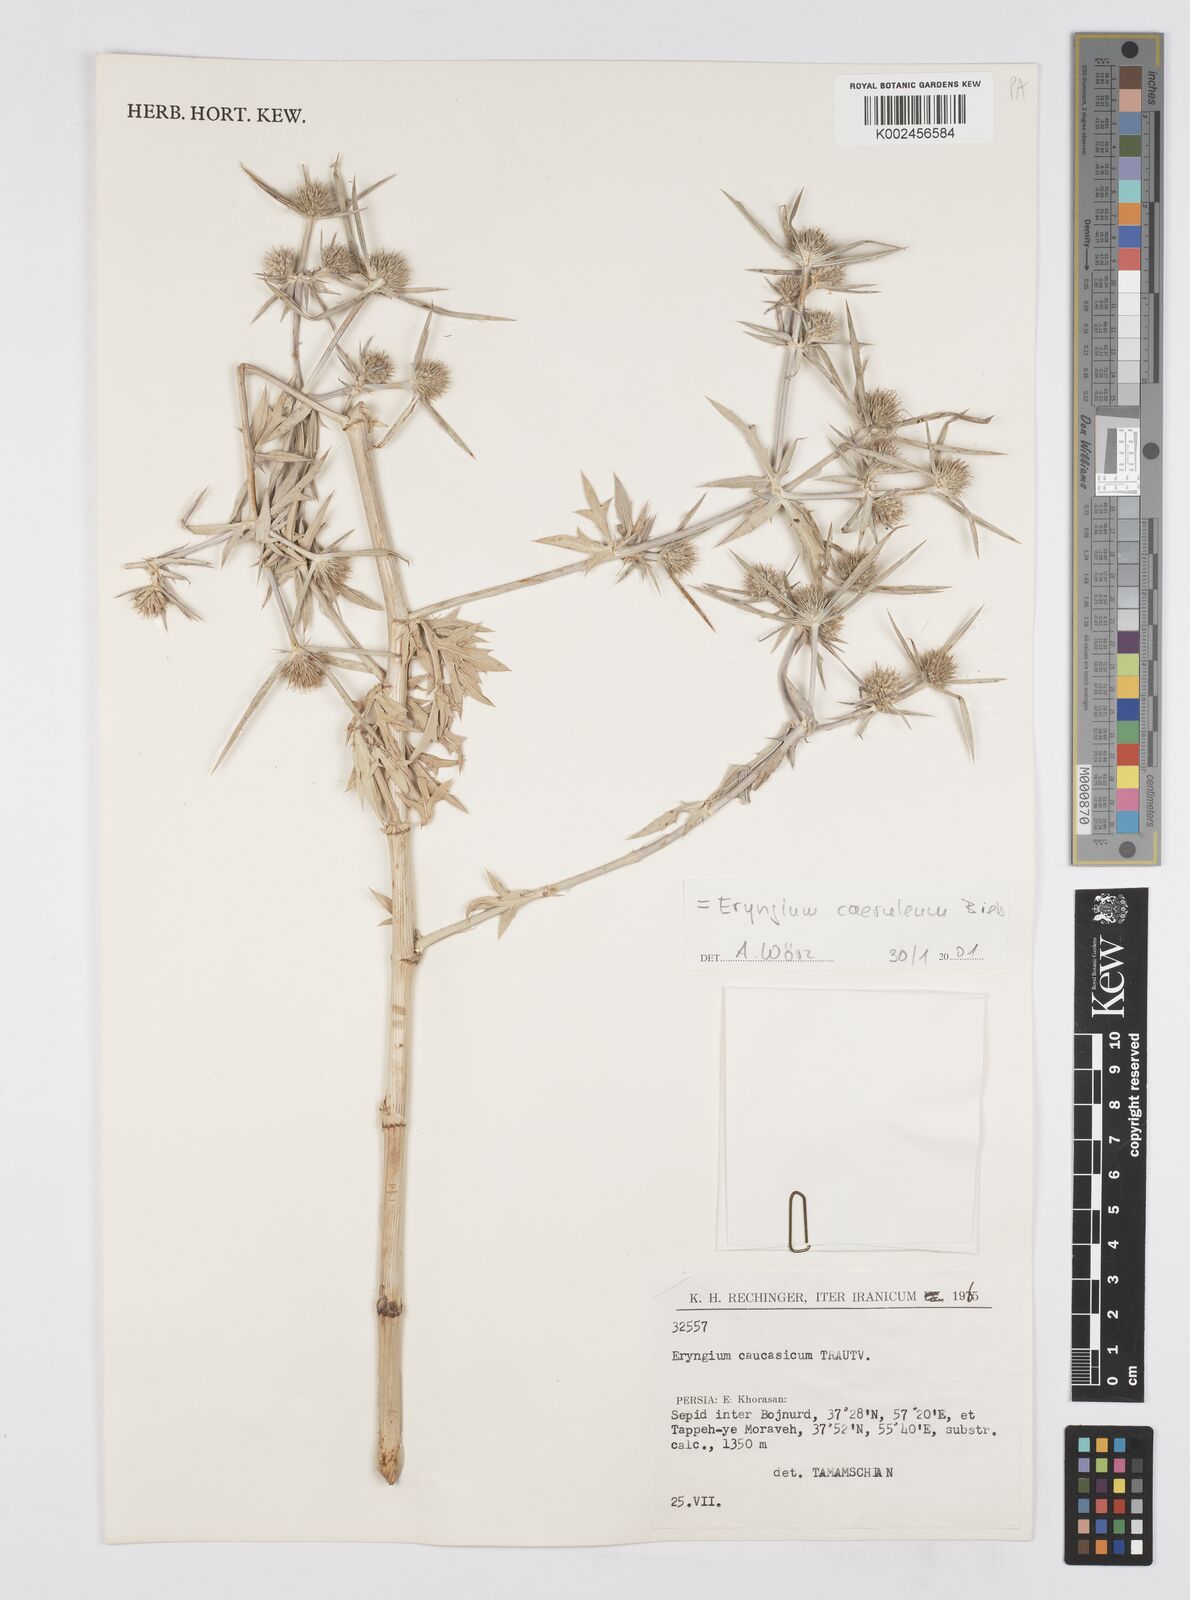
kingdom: Plantae
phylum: Tracheophyta
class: Magnoliopsida
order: Apiales
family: Apiaceae
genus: Eryngium
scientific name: Eryngium caeruleum
